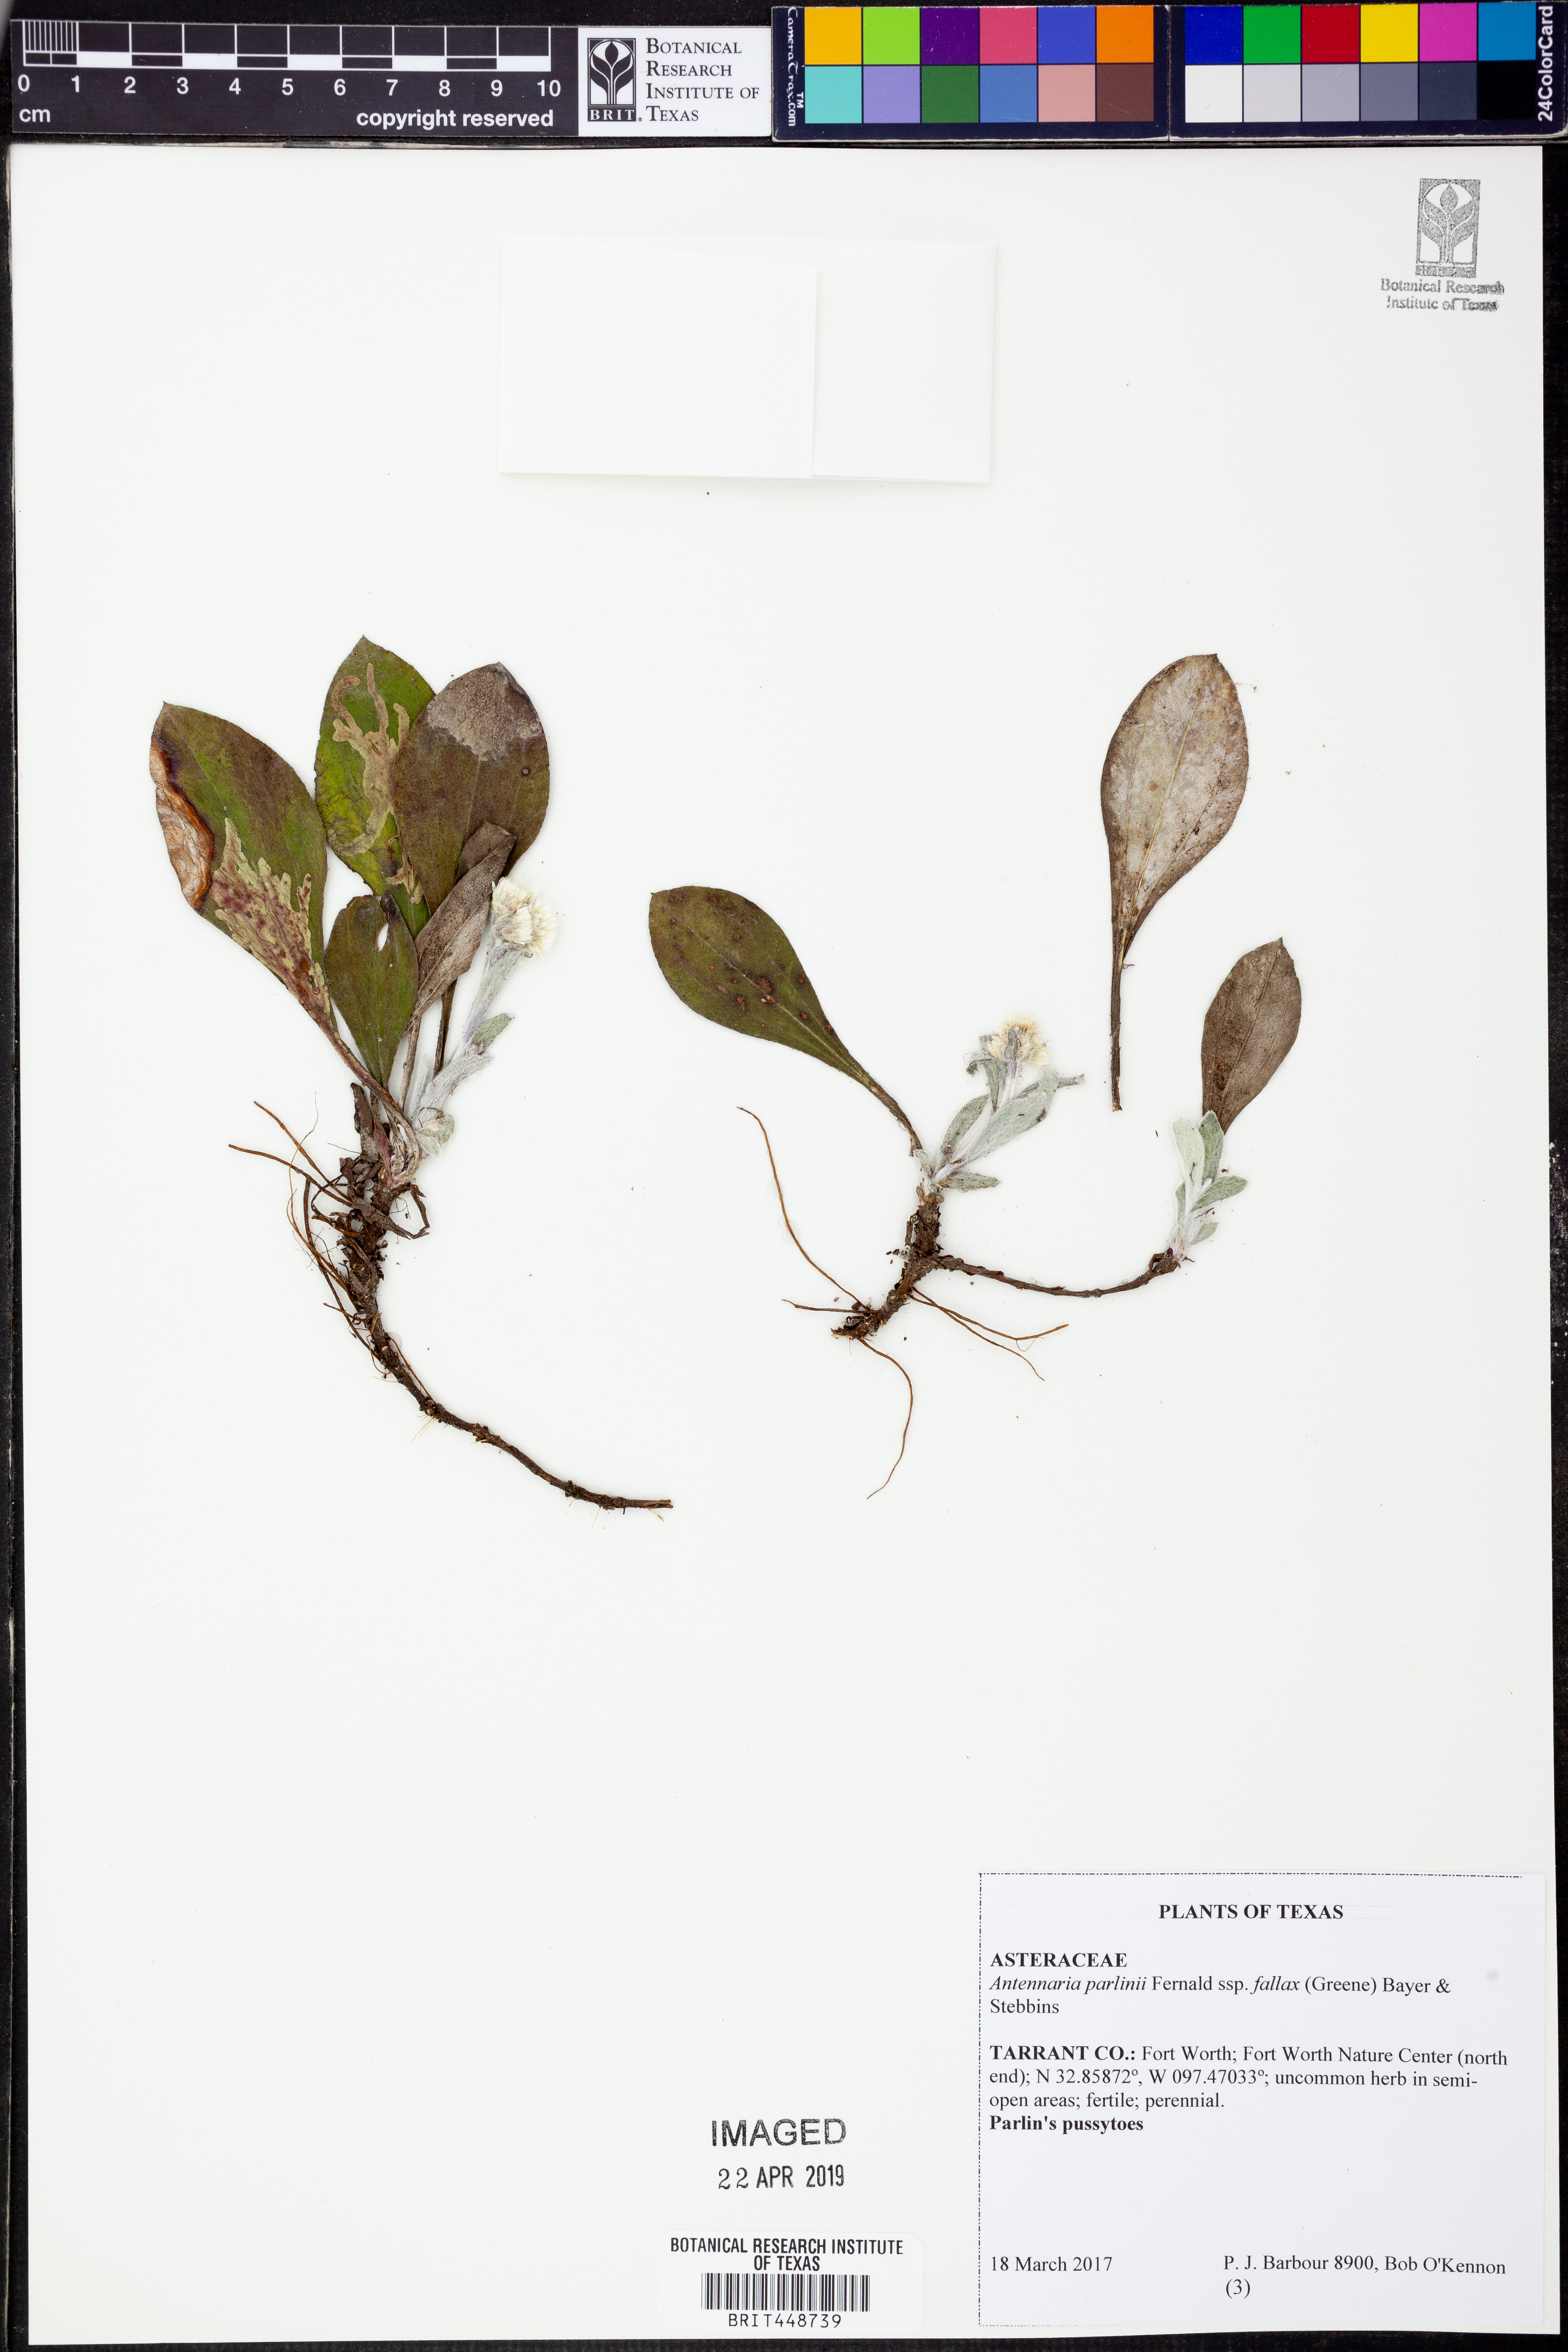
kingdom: Plantae
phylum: Tracheophyta
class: Magnoliopsida
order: Asterales
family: Asteraceae
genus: Antennaria
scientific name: Antennaria parlinii
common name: Parlin's pussytoes
